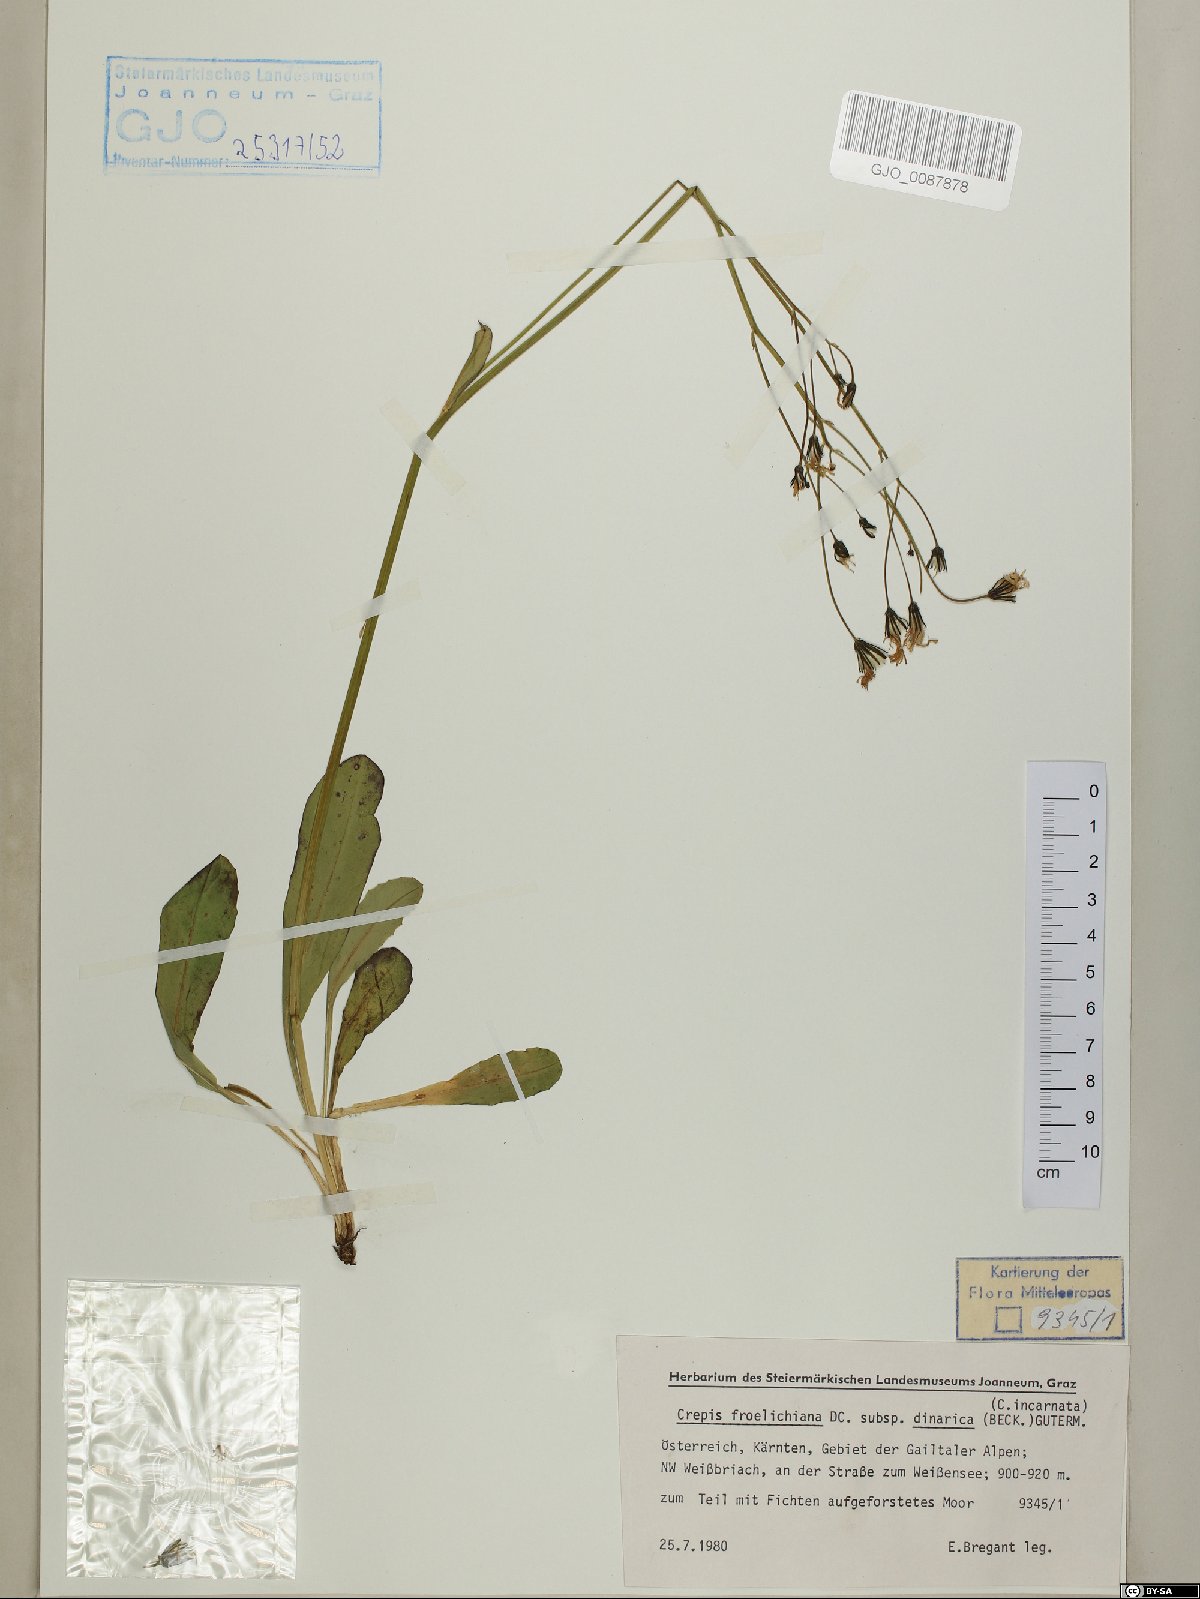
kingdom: Plantae
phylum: Tracheophyta
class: Magnoliopsida
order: Asterales
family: Asteraceae
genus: Crepis
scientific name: Crepis froelichiana
